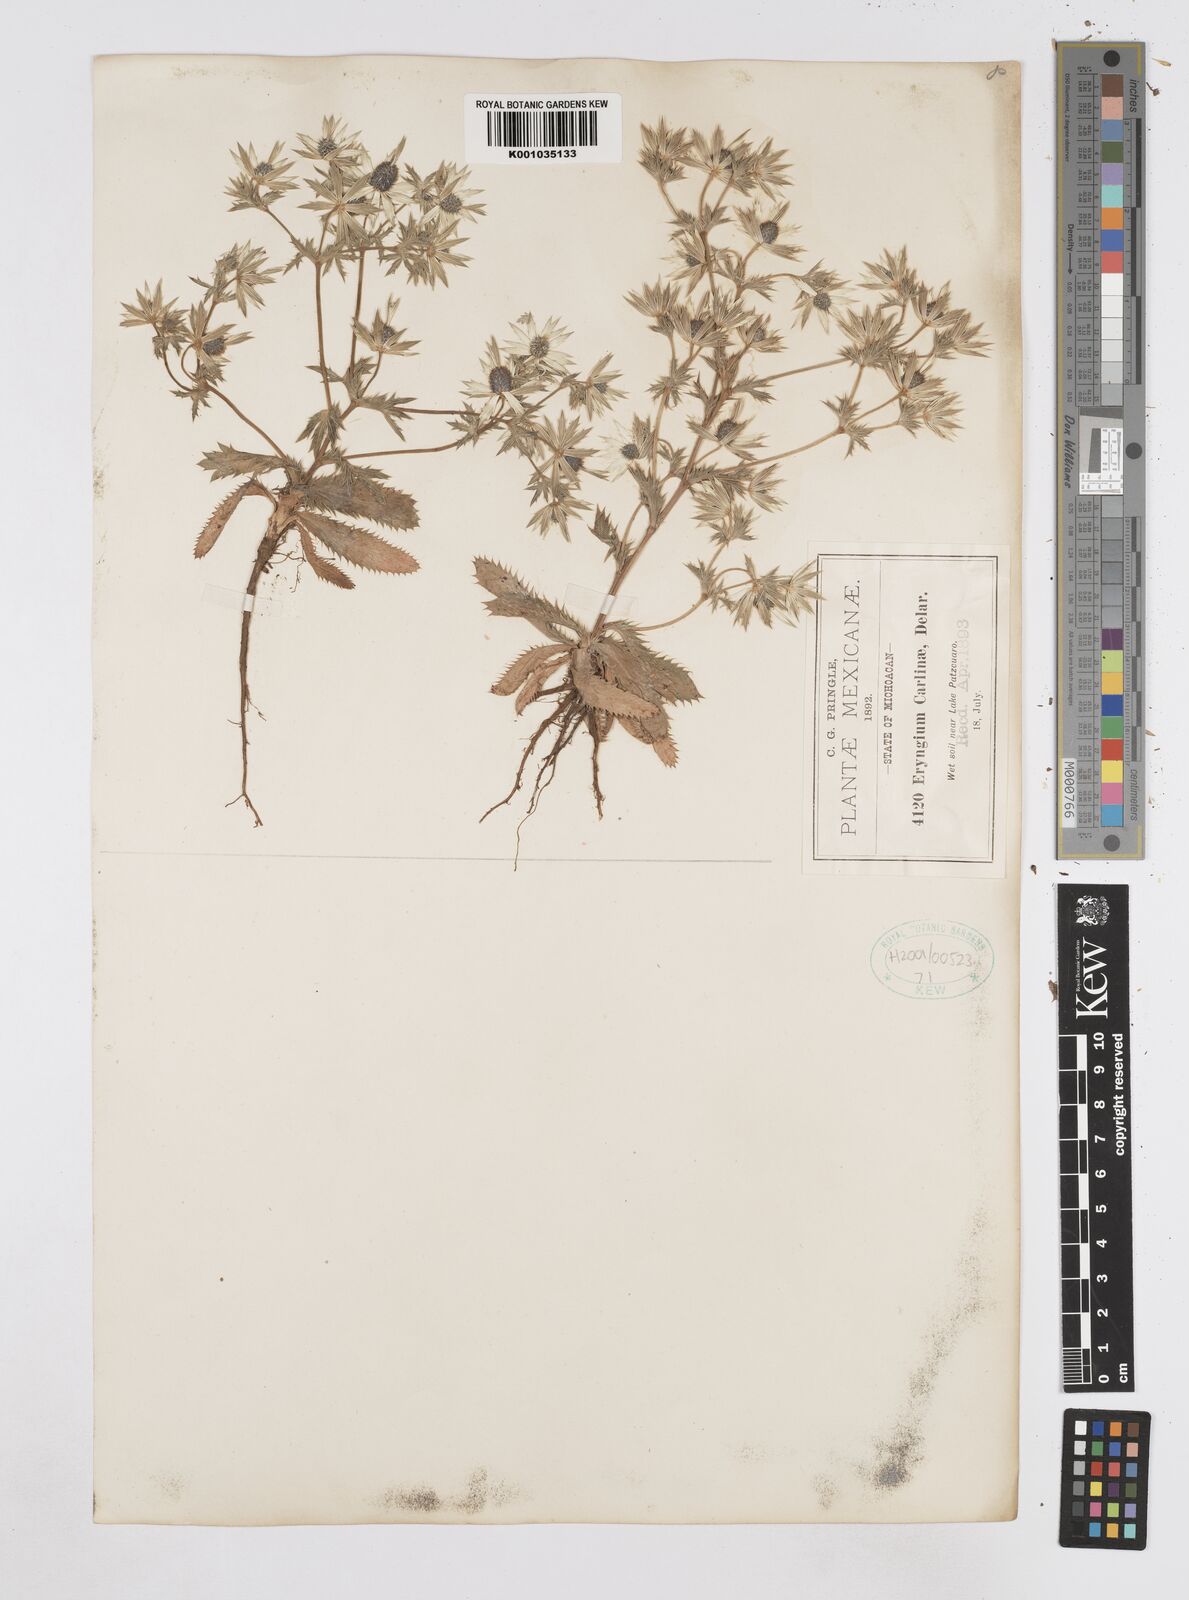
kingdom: Plantae
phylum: Tracheophyta
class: Magnoliopsida
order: Apiales
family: Apiaceae
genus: Eryngium
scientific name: Eryngium carlinae
